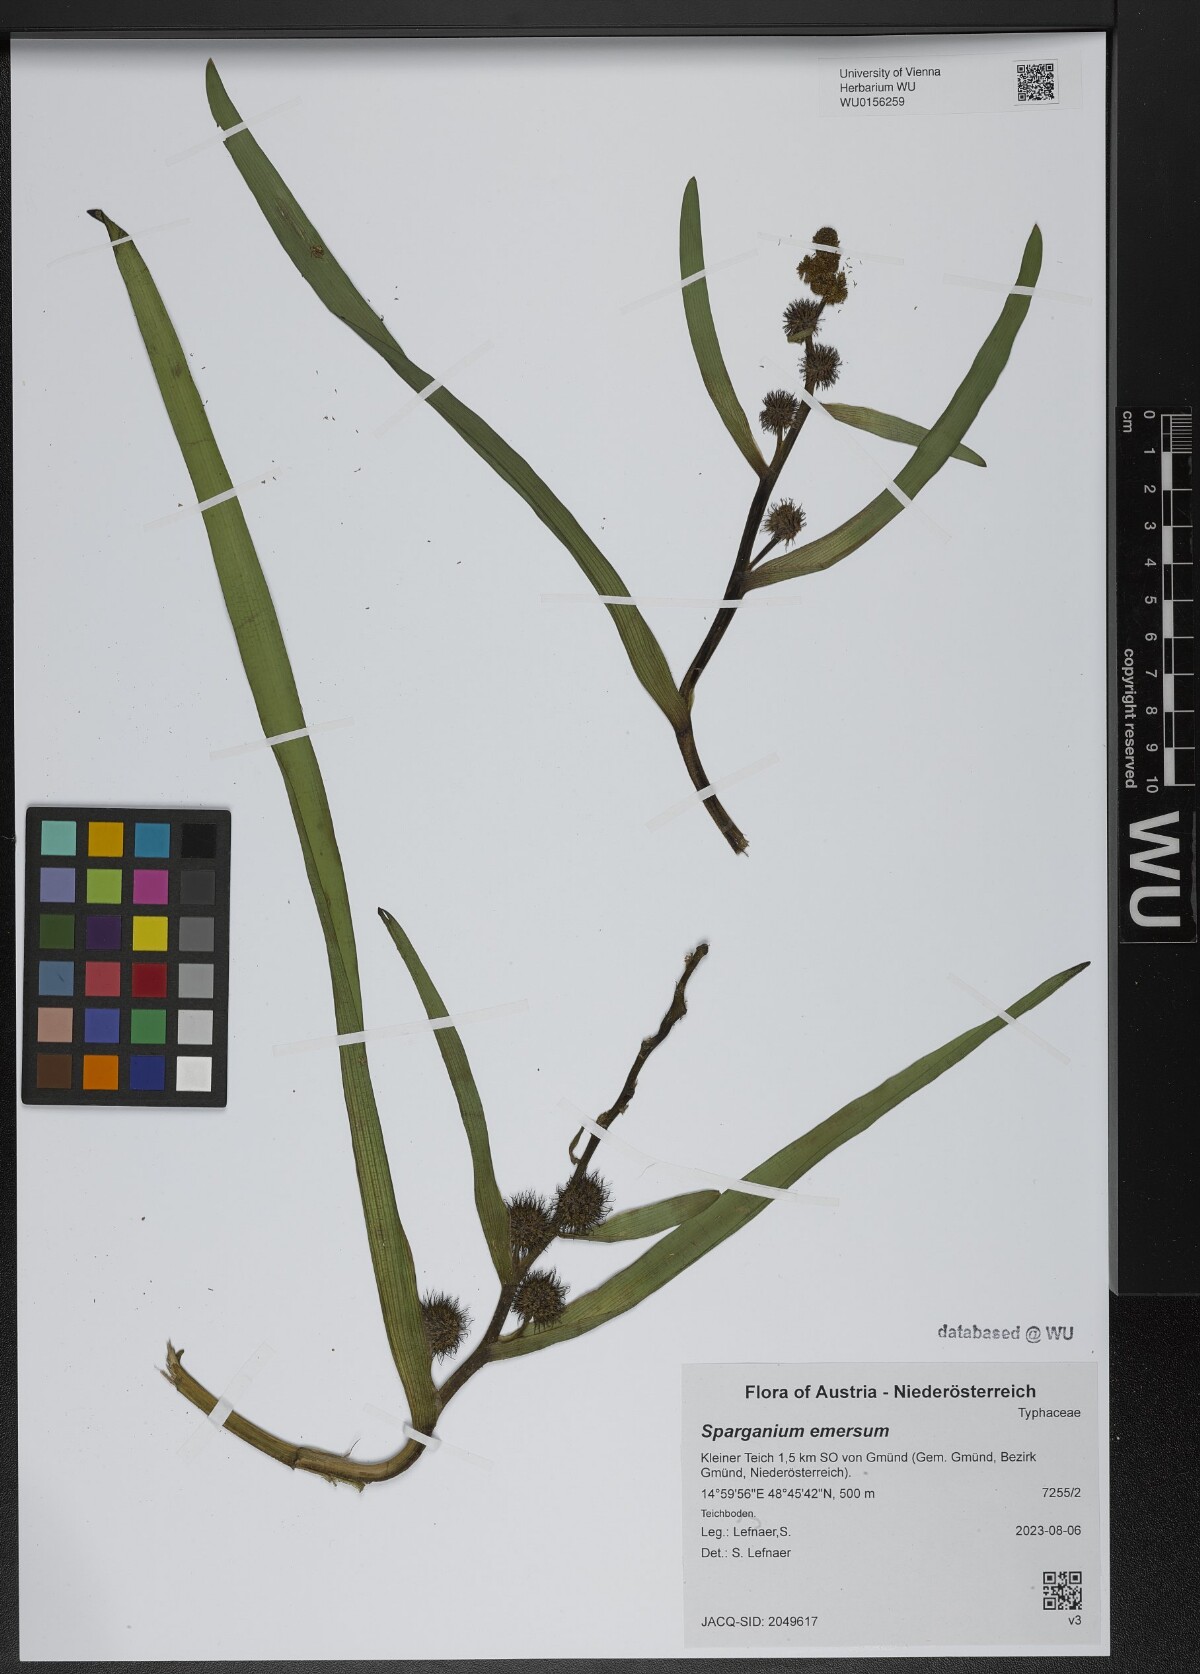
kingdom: Plantae
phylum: Tracheophyta
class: Liliopsida
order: Poales
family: Typhaceae
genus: Sparganium
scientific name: Sparganium emersum
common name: Unbranched bur-reed
